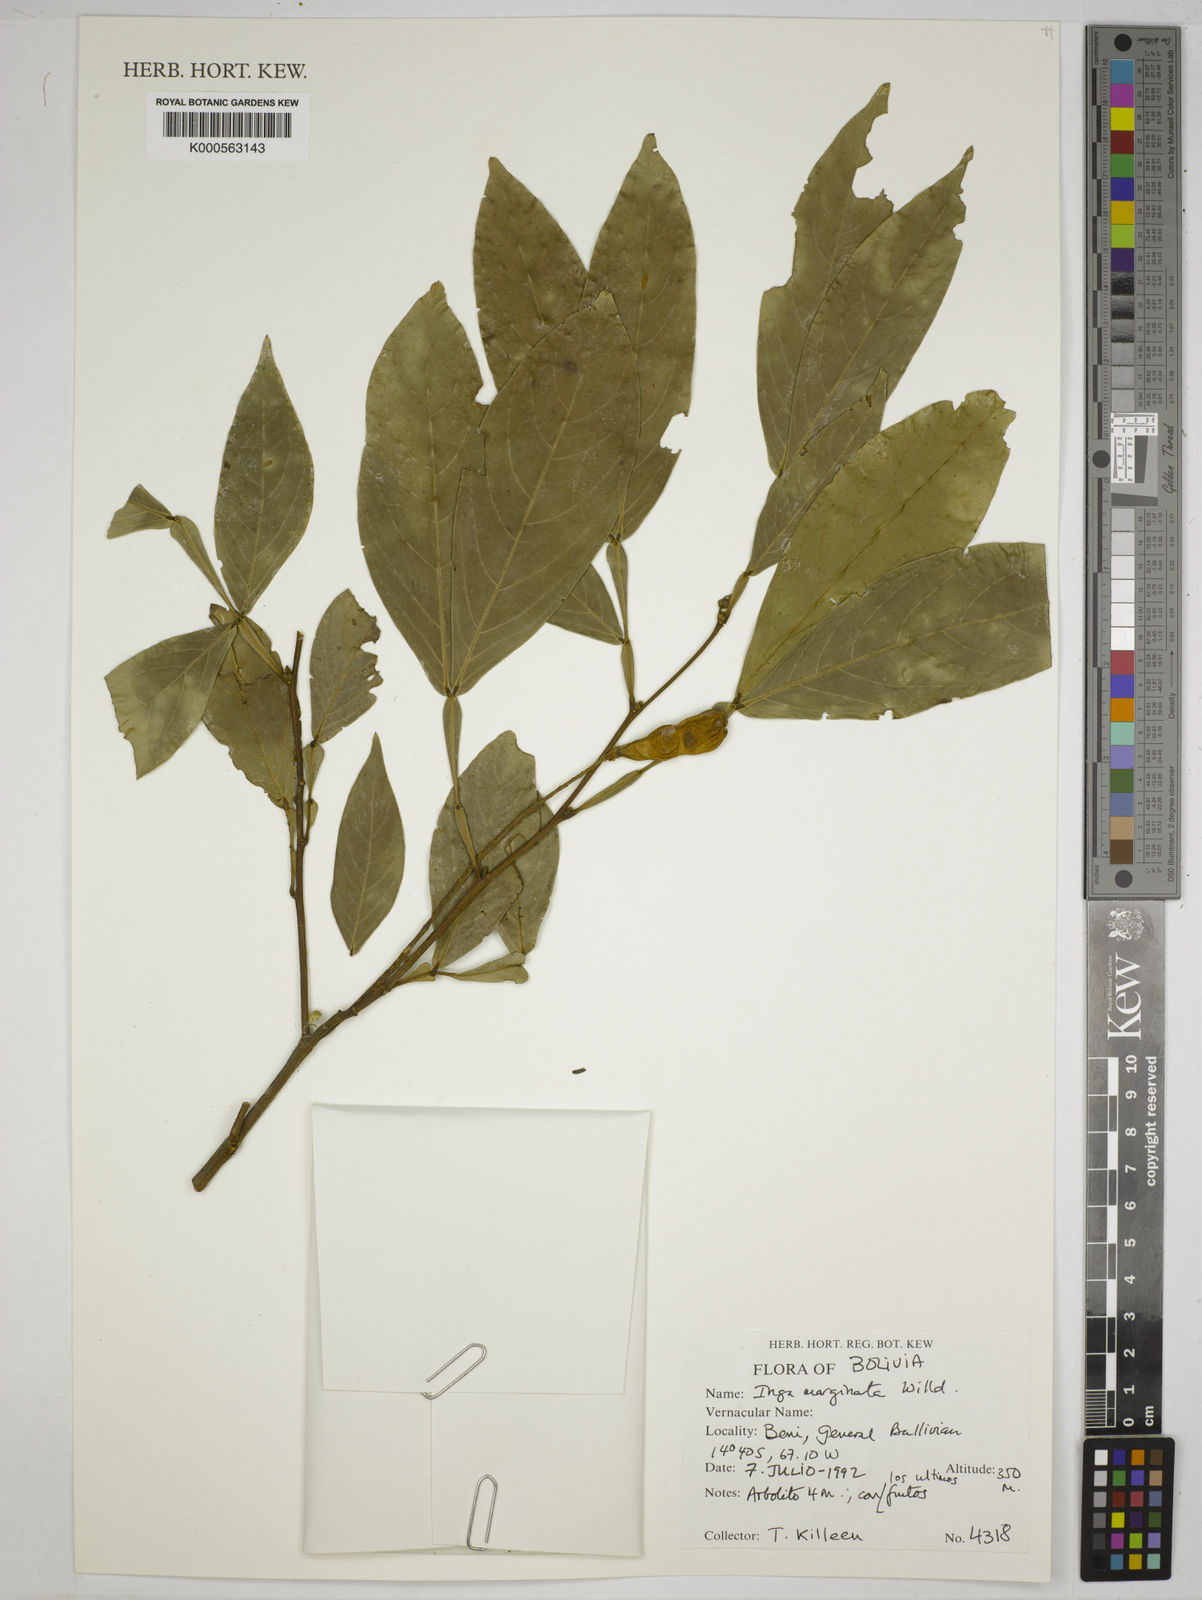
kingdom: Plantae
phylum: Tracheophyta
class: Magnoliopsida
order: Fabales
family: Fabaceae
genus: Inga
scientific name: Inga marginata
